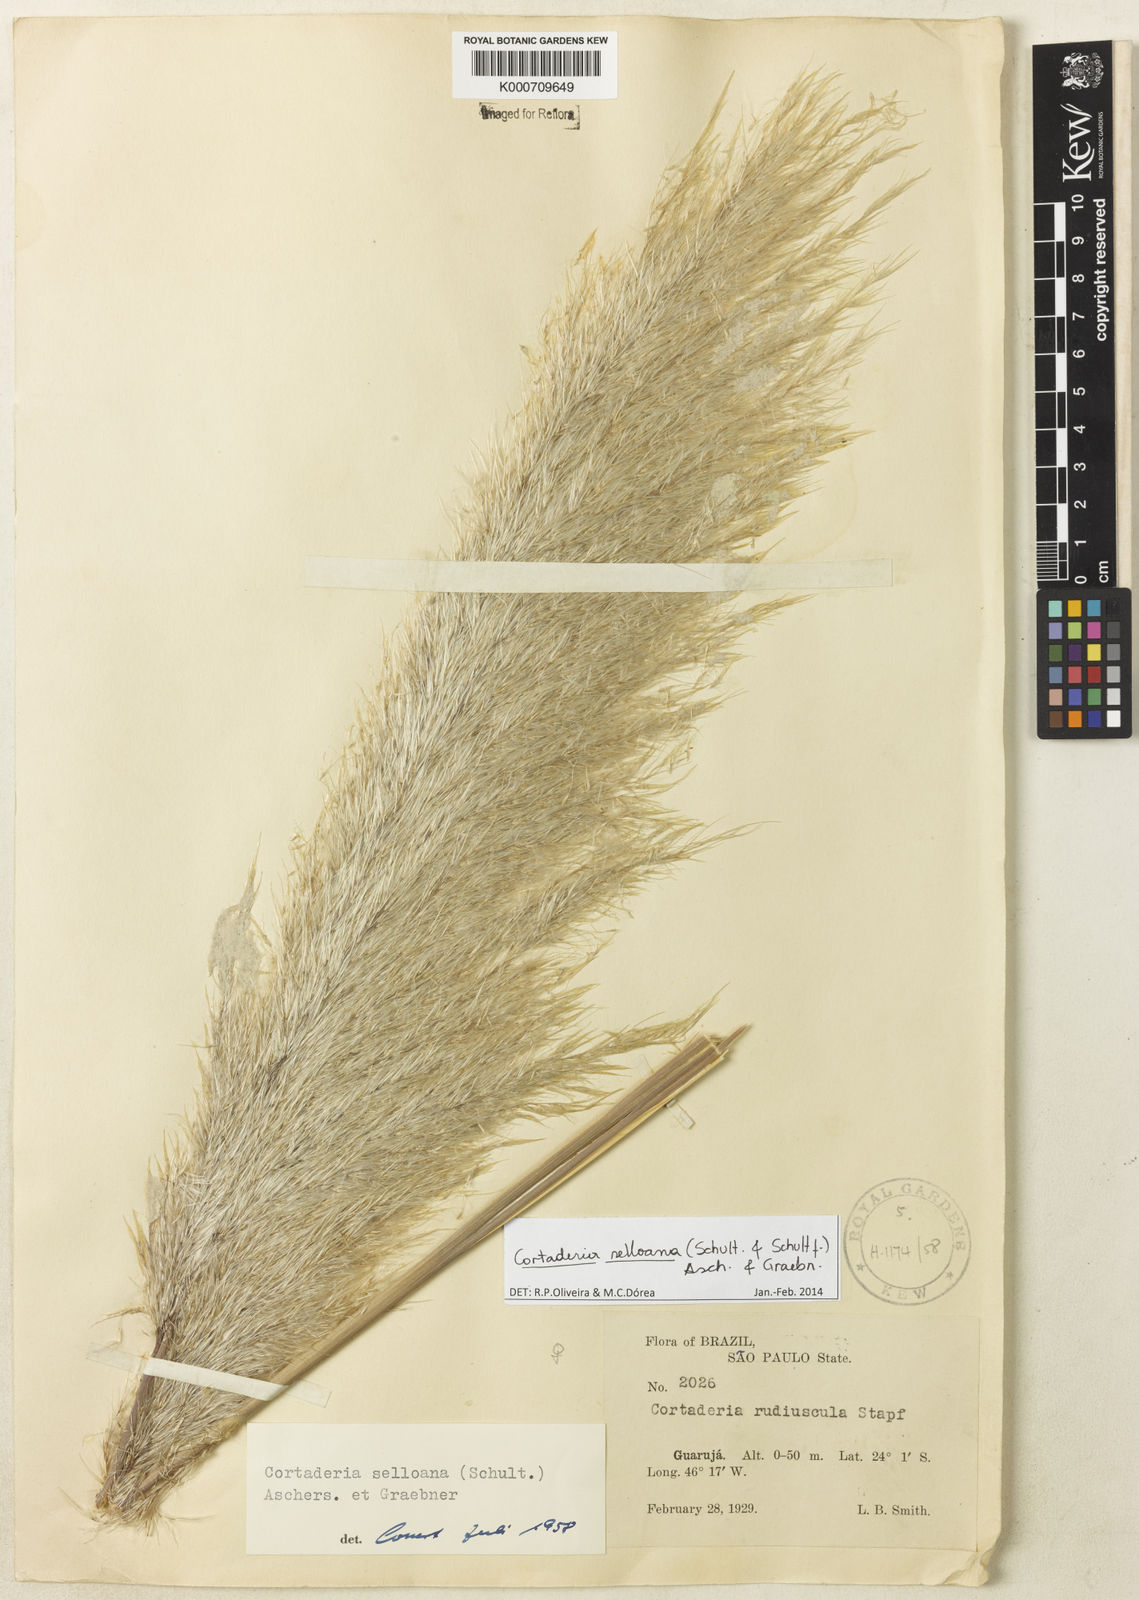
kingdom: Plantae
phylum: Tracheophyta
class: Liliopsida
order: Poales
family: Poaceae
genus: Cortaderia
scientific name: Cortaderia selloana
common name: Uruguayan pampas grass
